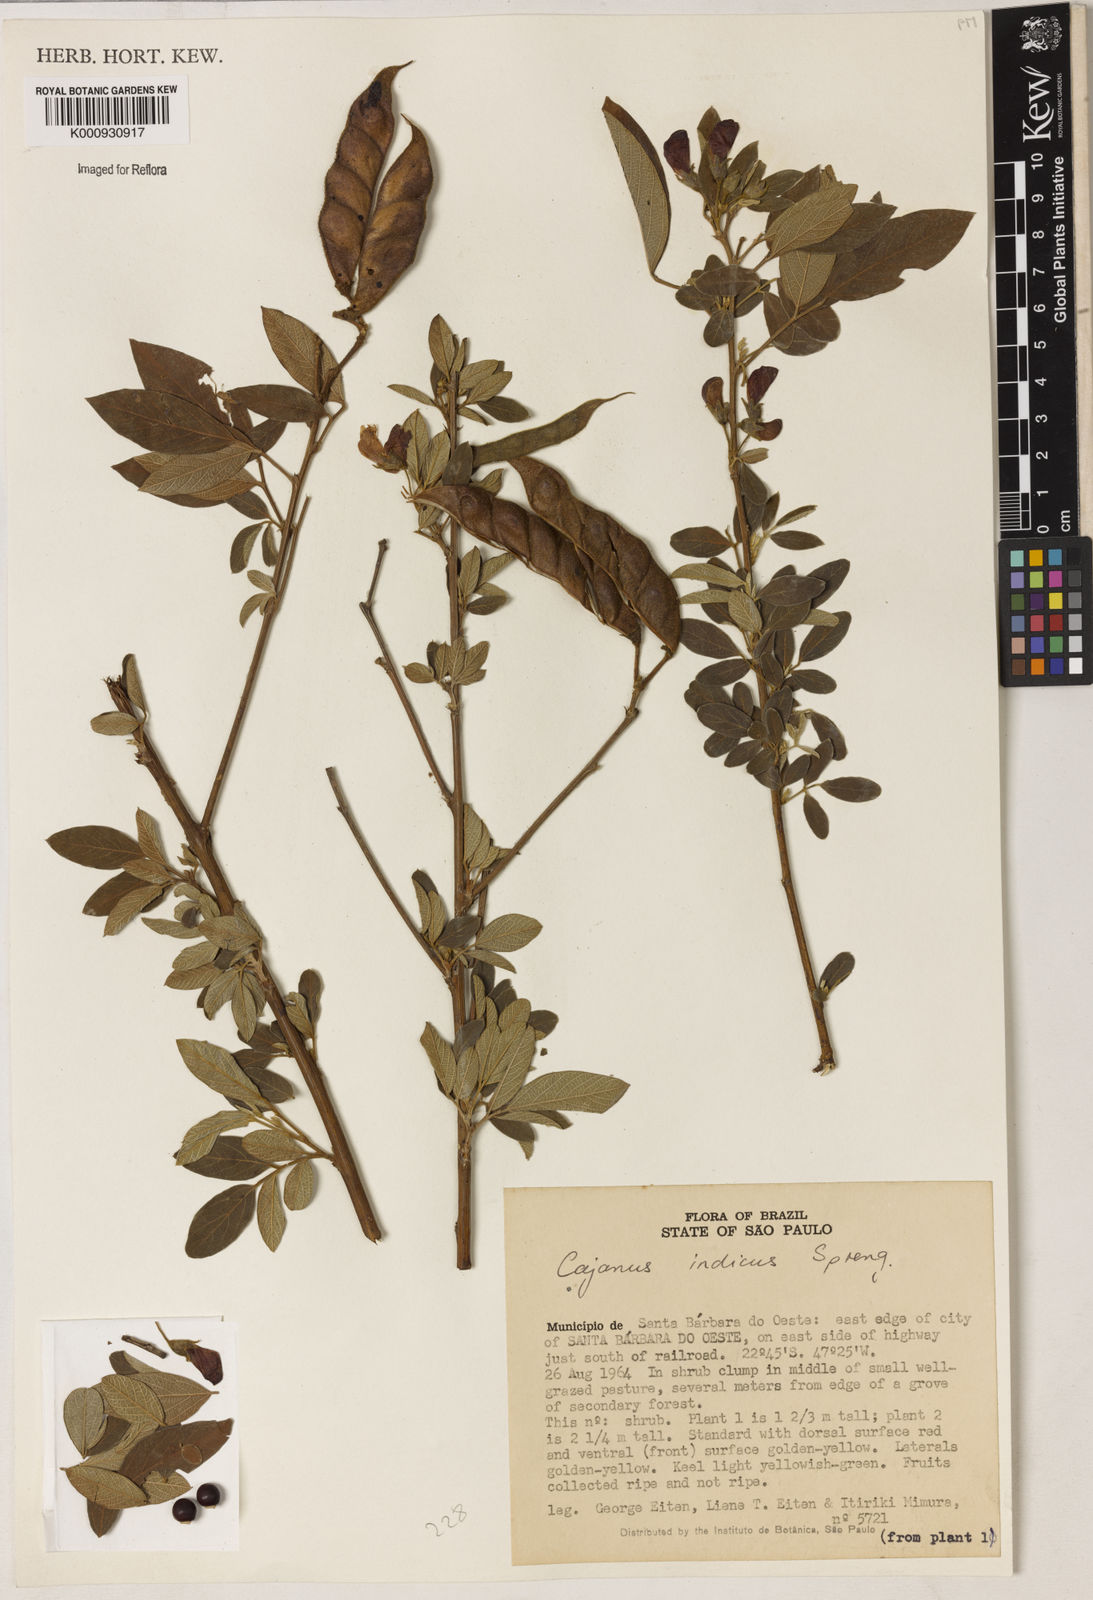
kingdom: Plantae
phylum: Tracheophyta
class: Magnoliopsida
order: Fabales
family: Fabaceae
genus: Cajanus
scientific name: Cajanus
